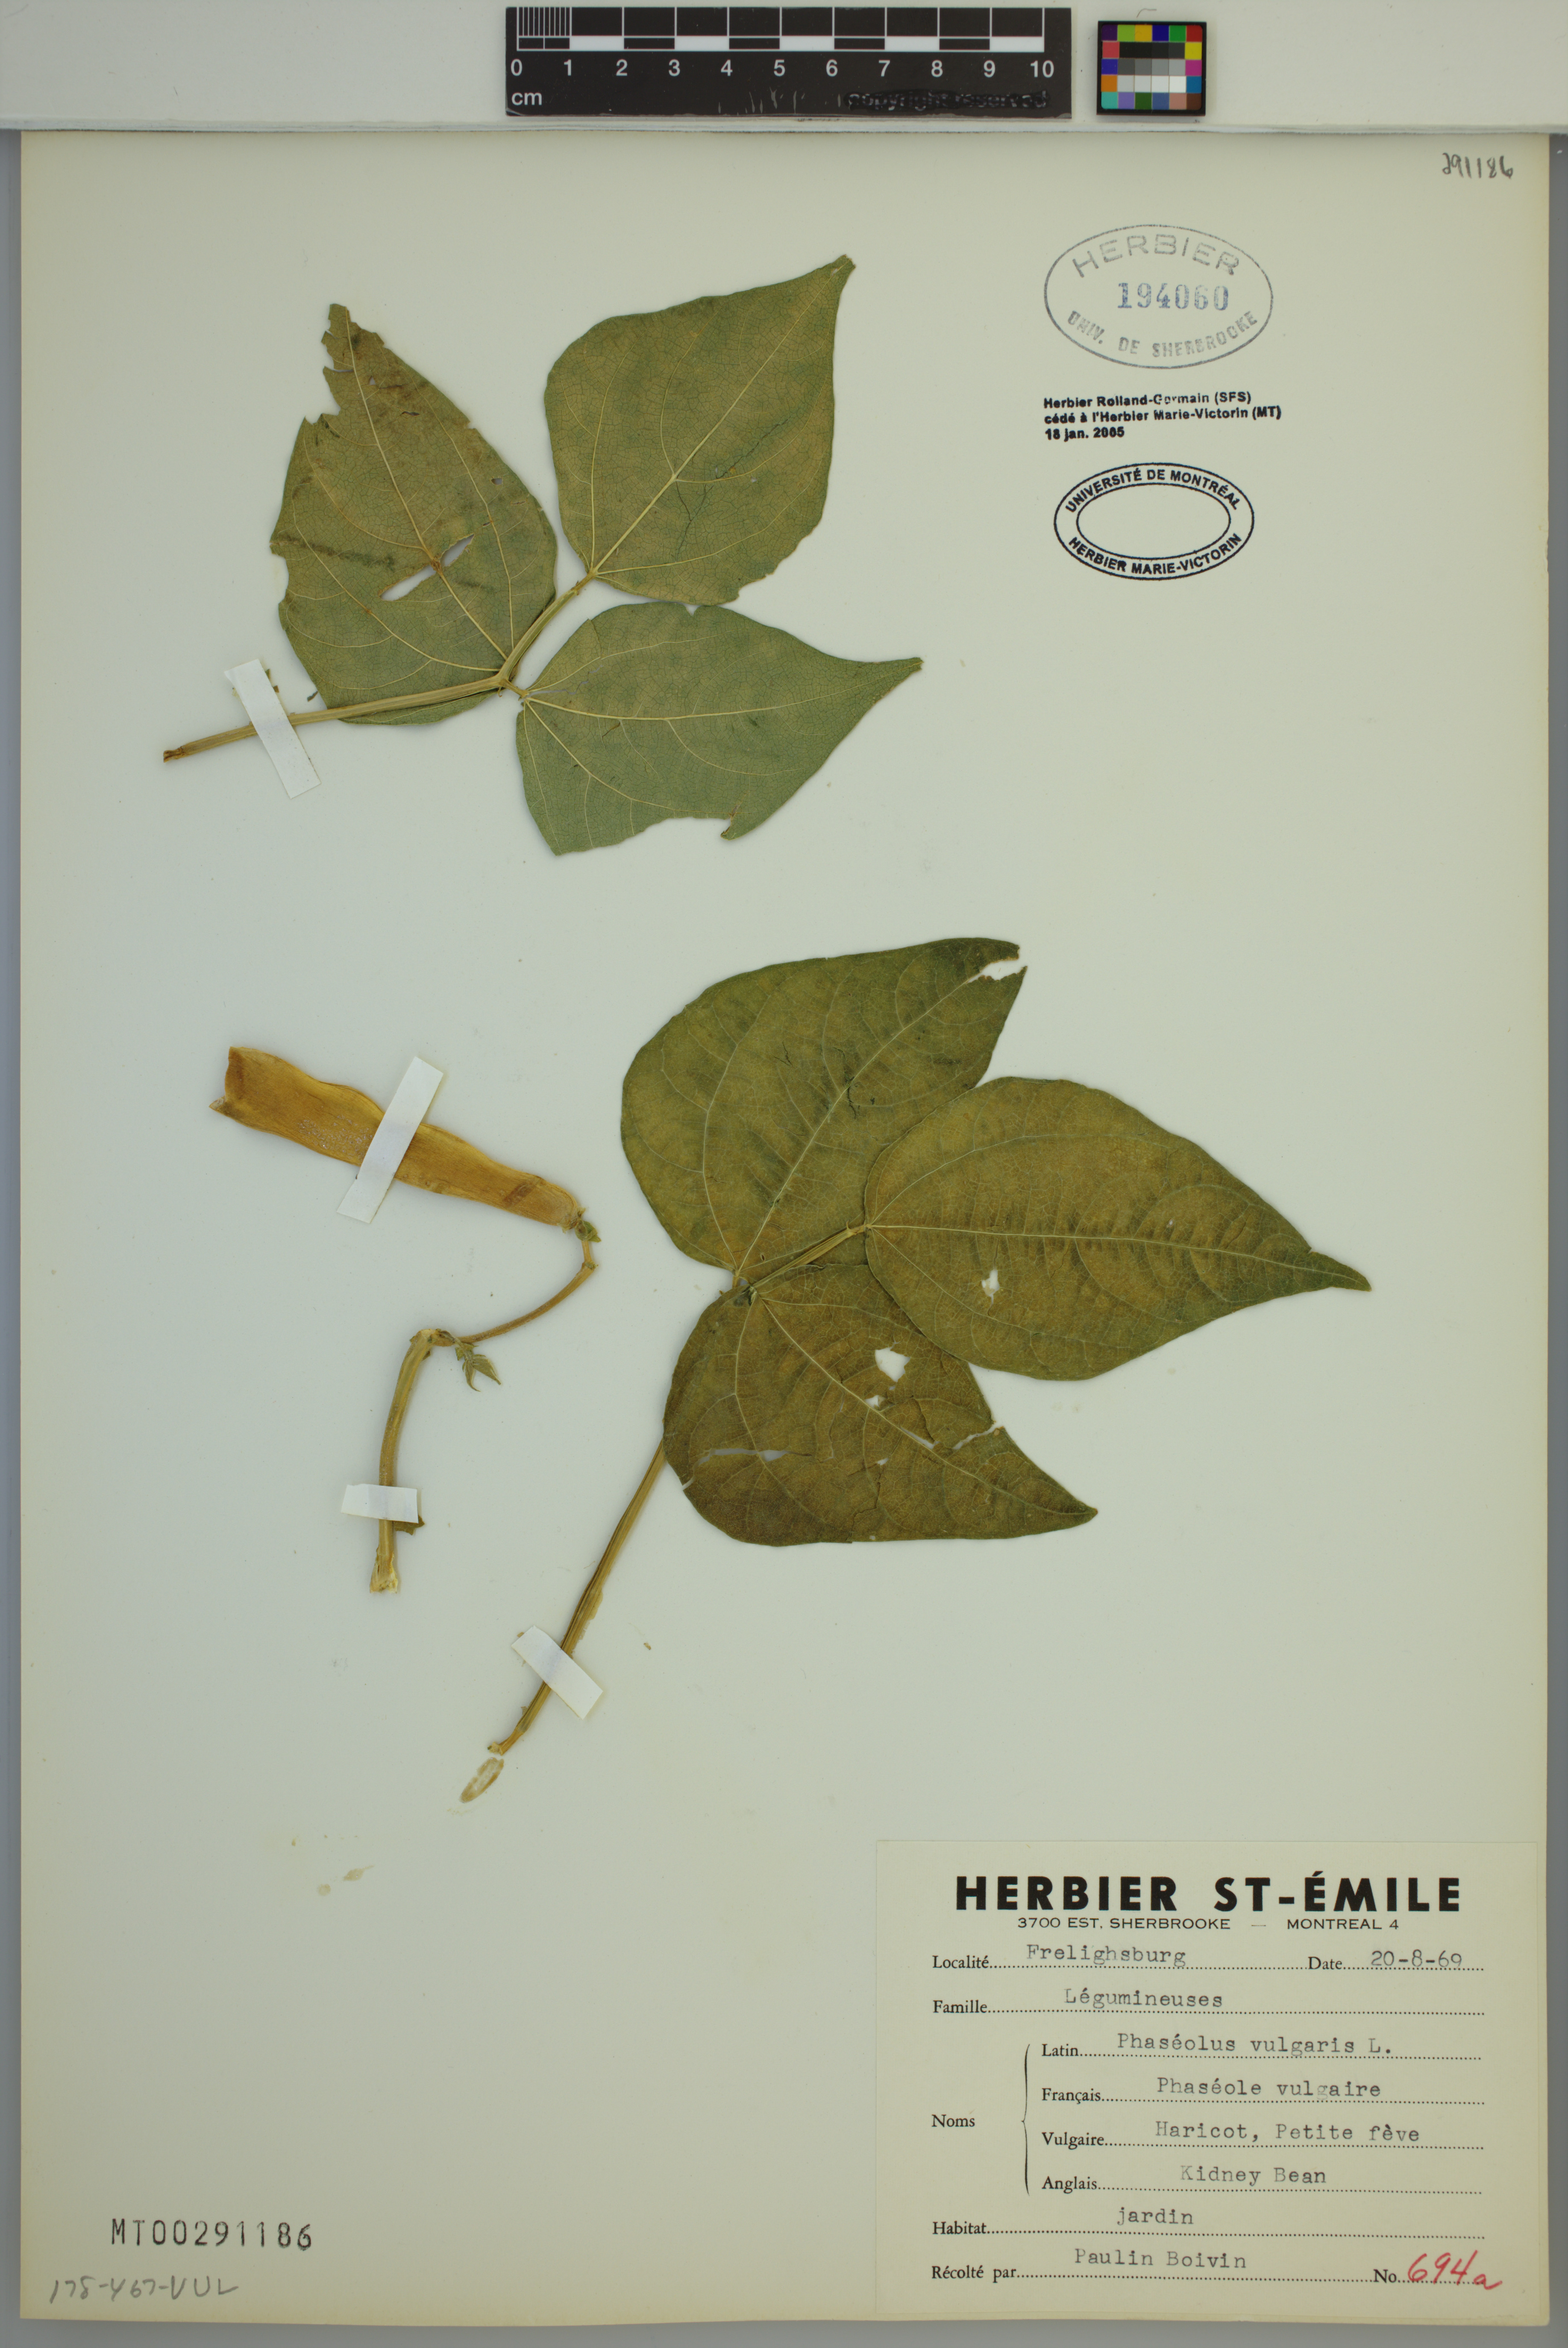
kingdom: Plantae
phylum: Tracheophyta
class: Magnoliopsida
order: Fabales
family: Fabaceae
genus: Phaseolus
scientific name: Phaseolus vulgaris
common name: Bean
